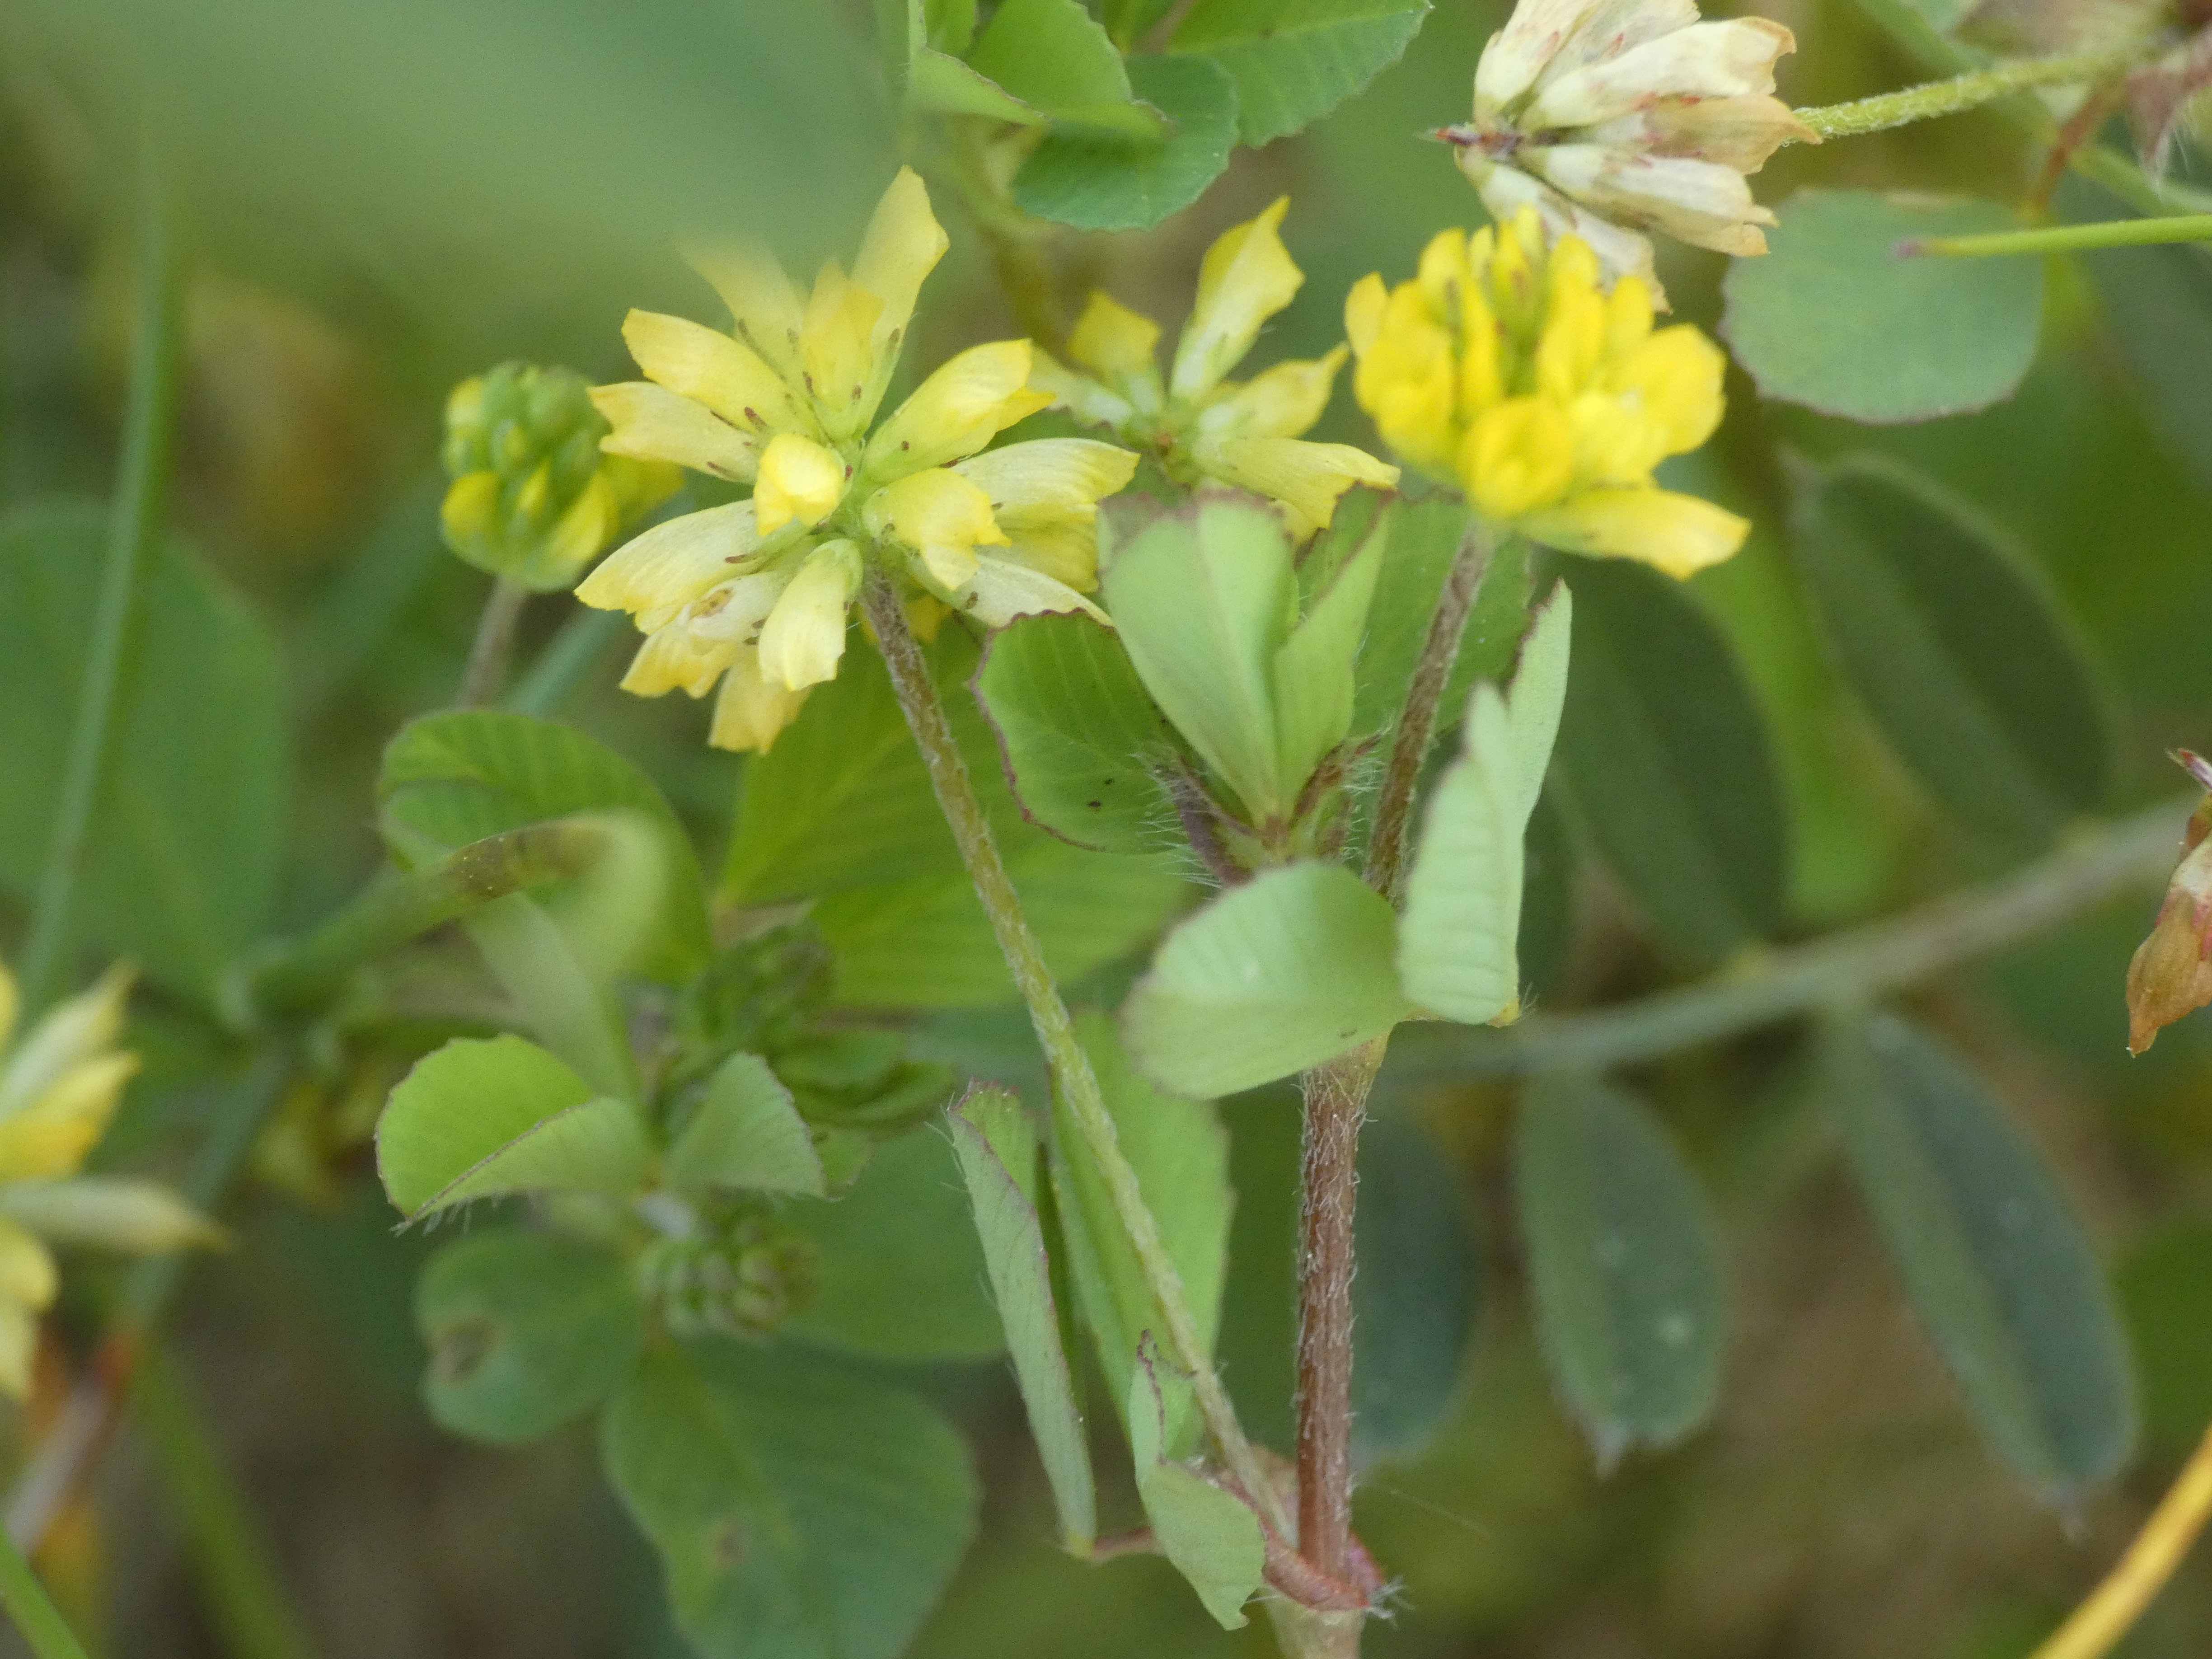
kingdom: Plantae
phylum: Tracheophyta
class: Magnoliopsida
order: Fabales
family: Fabaceae
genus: Trifolium
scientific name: Trifolium dubium
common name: Fin kløver
